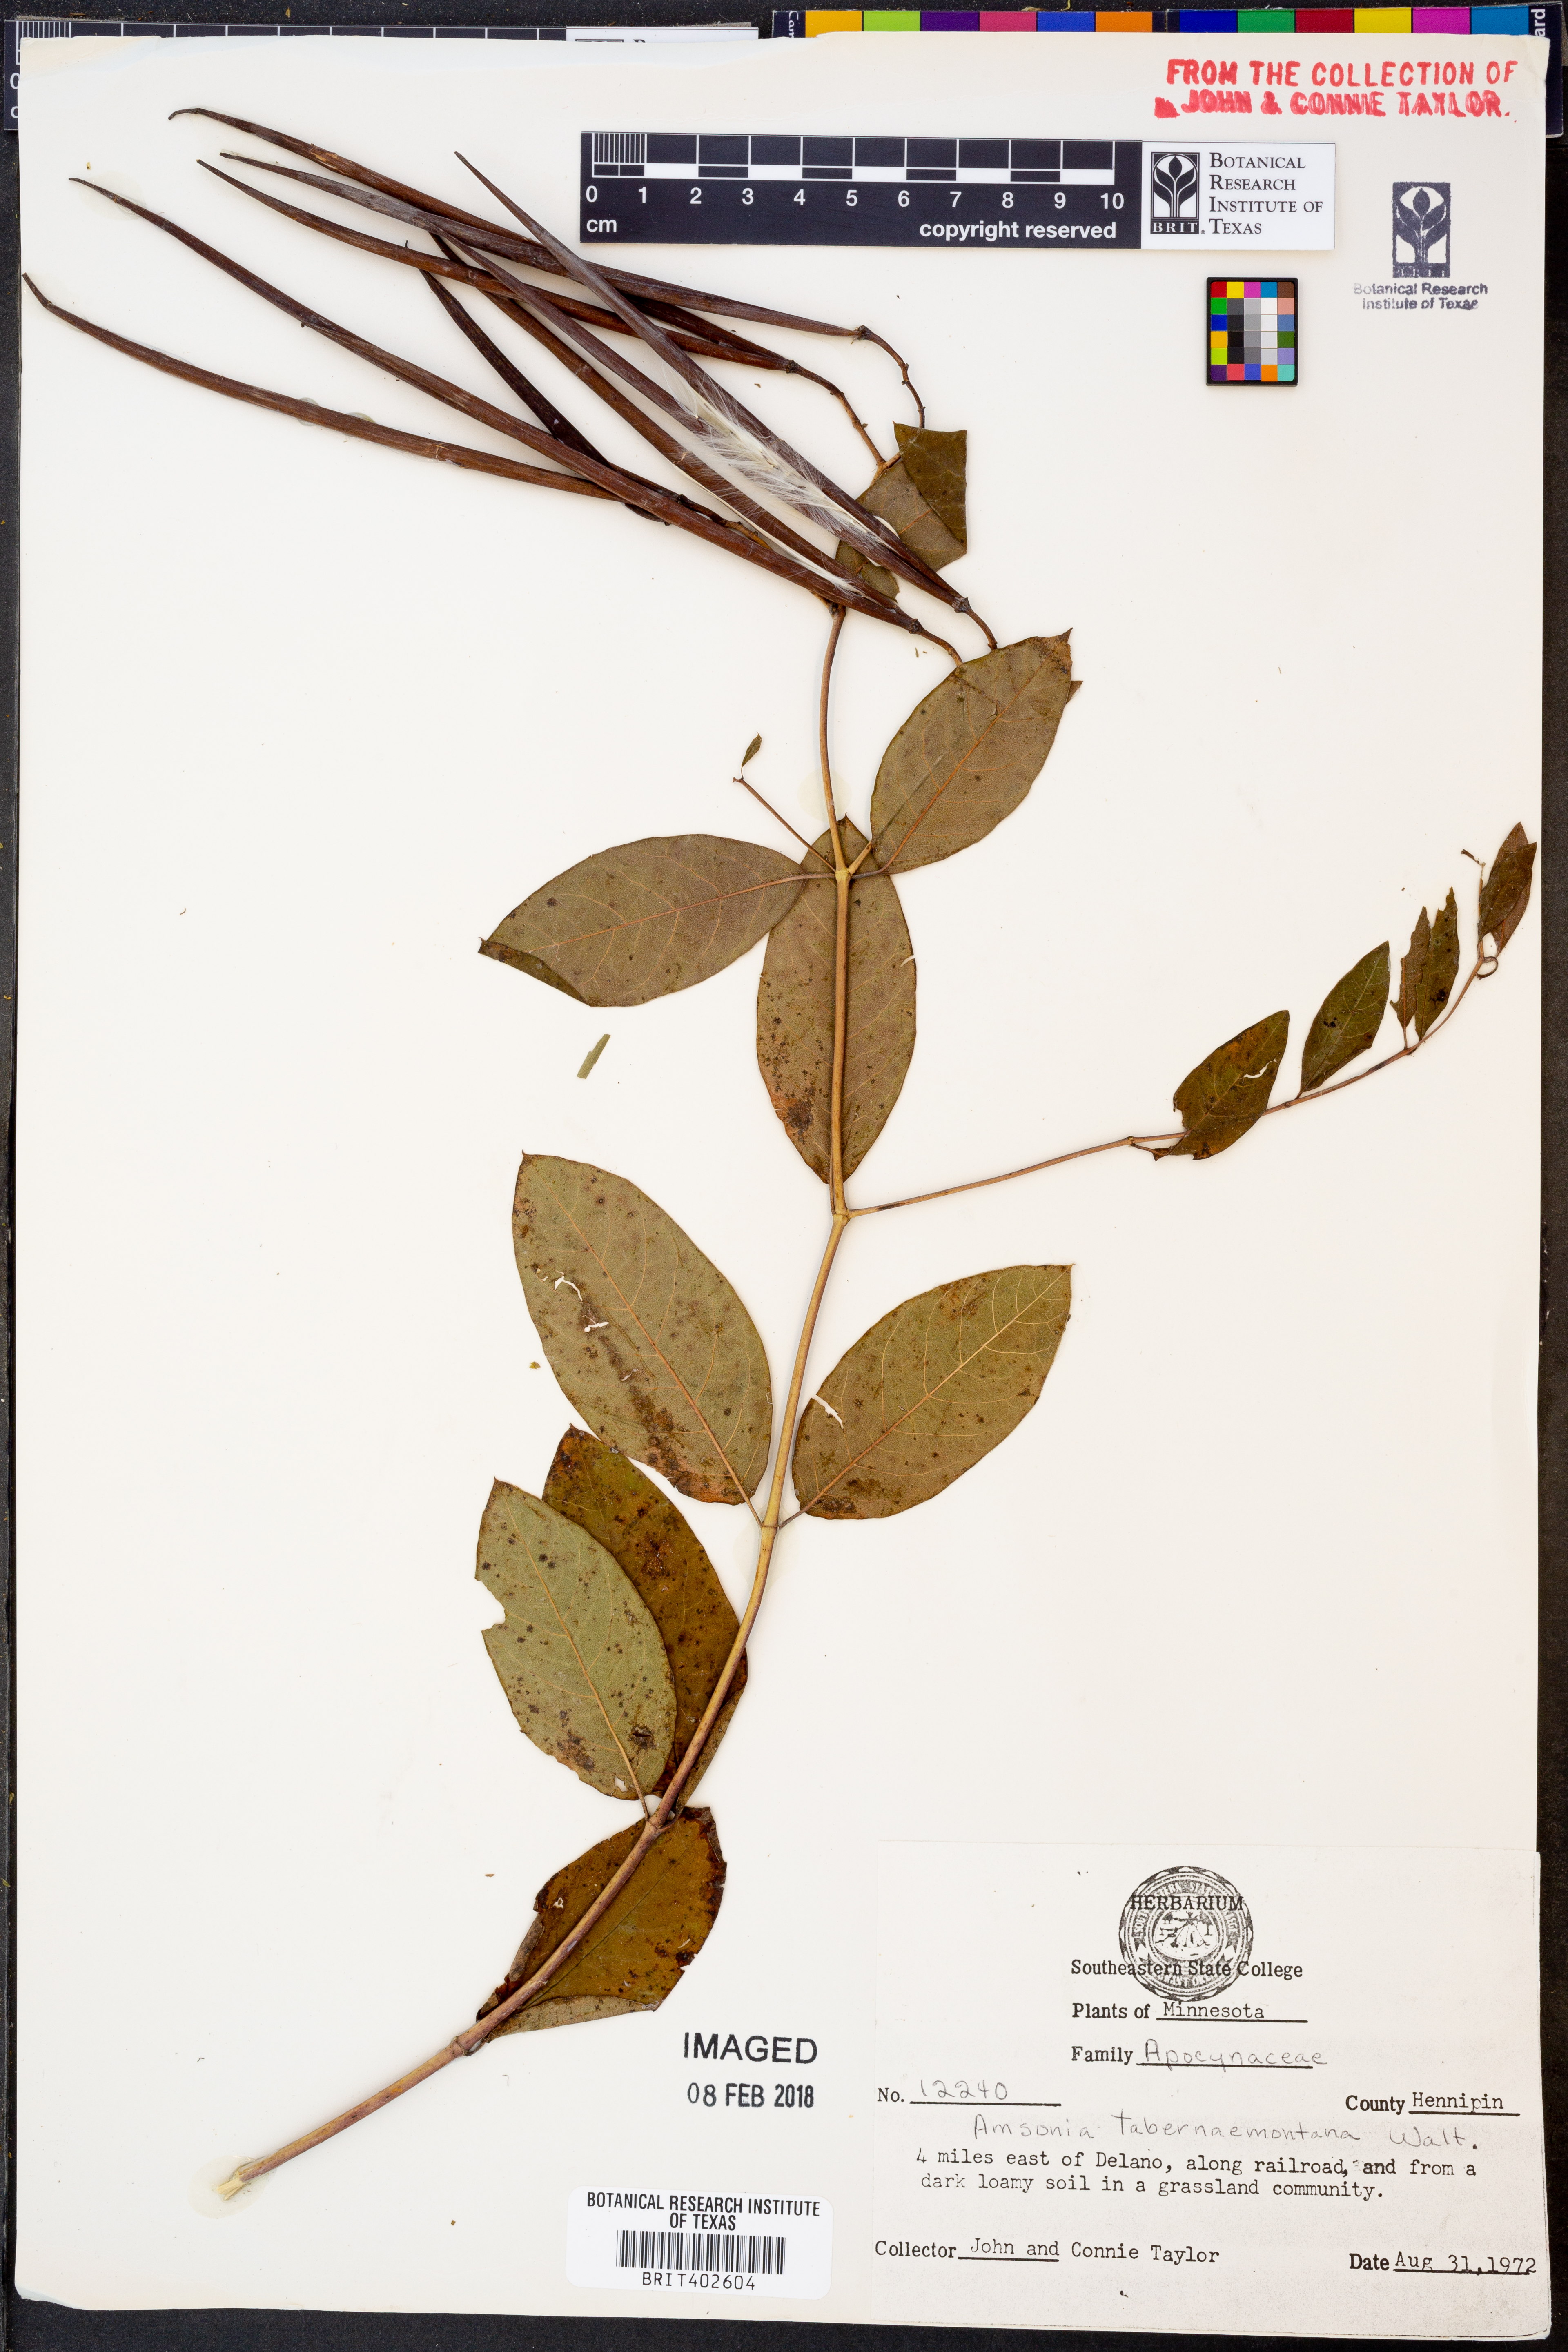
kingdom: Plantae
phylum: Tracheophyta
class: Magnoliopsida
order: Gentianales
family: Apocynaceae
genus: Amsonia
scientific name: Amsonia tabernaemontana
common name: Texas-star
